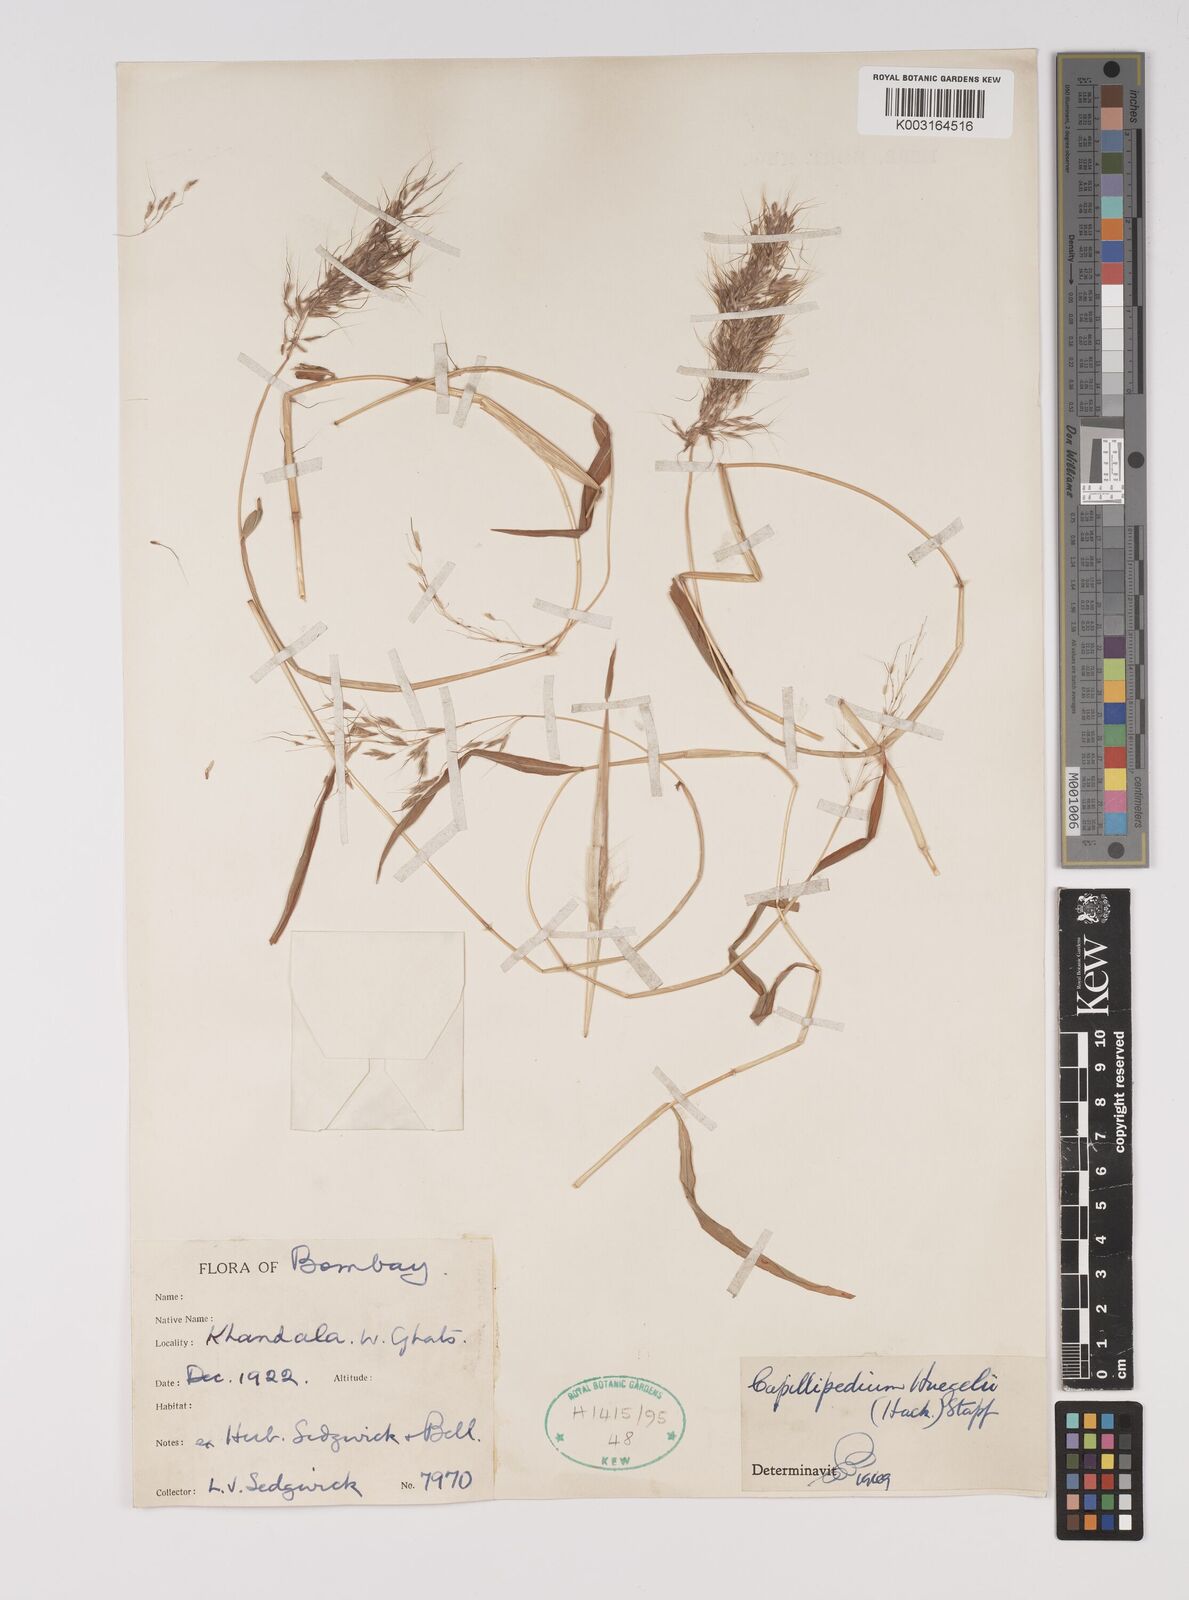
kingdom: Plantae
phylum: Tracheophyta
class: Liliopsida
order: Poales
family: Poaceae
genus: Capillipedium
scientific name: Capillipedium huegelii
